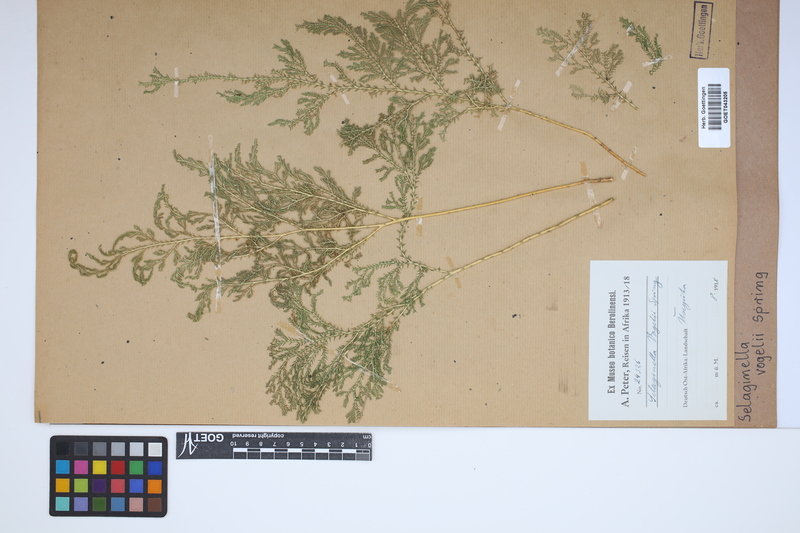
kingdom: Plantae
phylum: Tracheophyta
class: Lycopodiopsida
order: Selaginellales
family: Selaginellaceae
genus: Selaginella
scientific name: Selaginella vogelii
